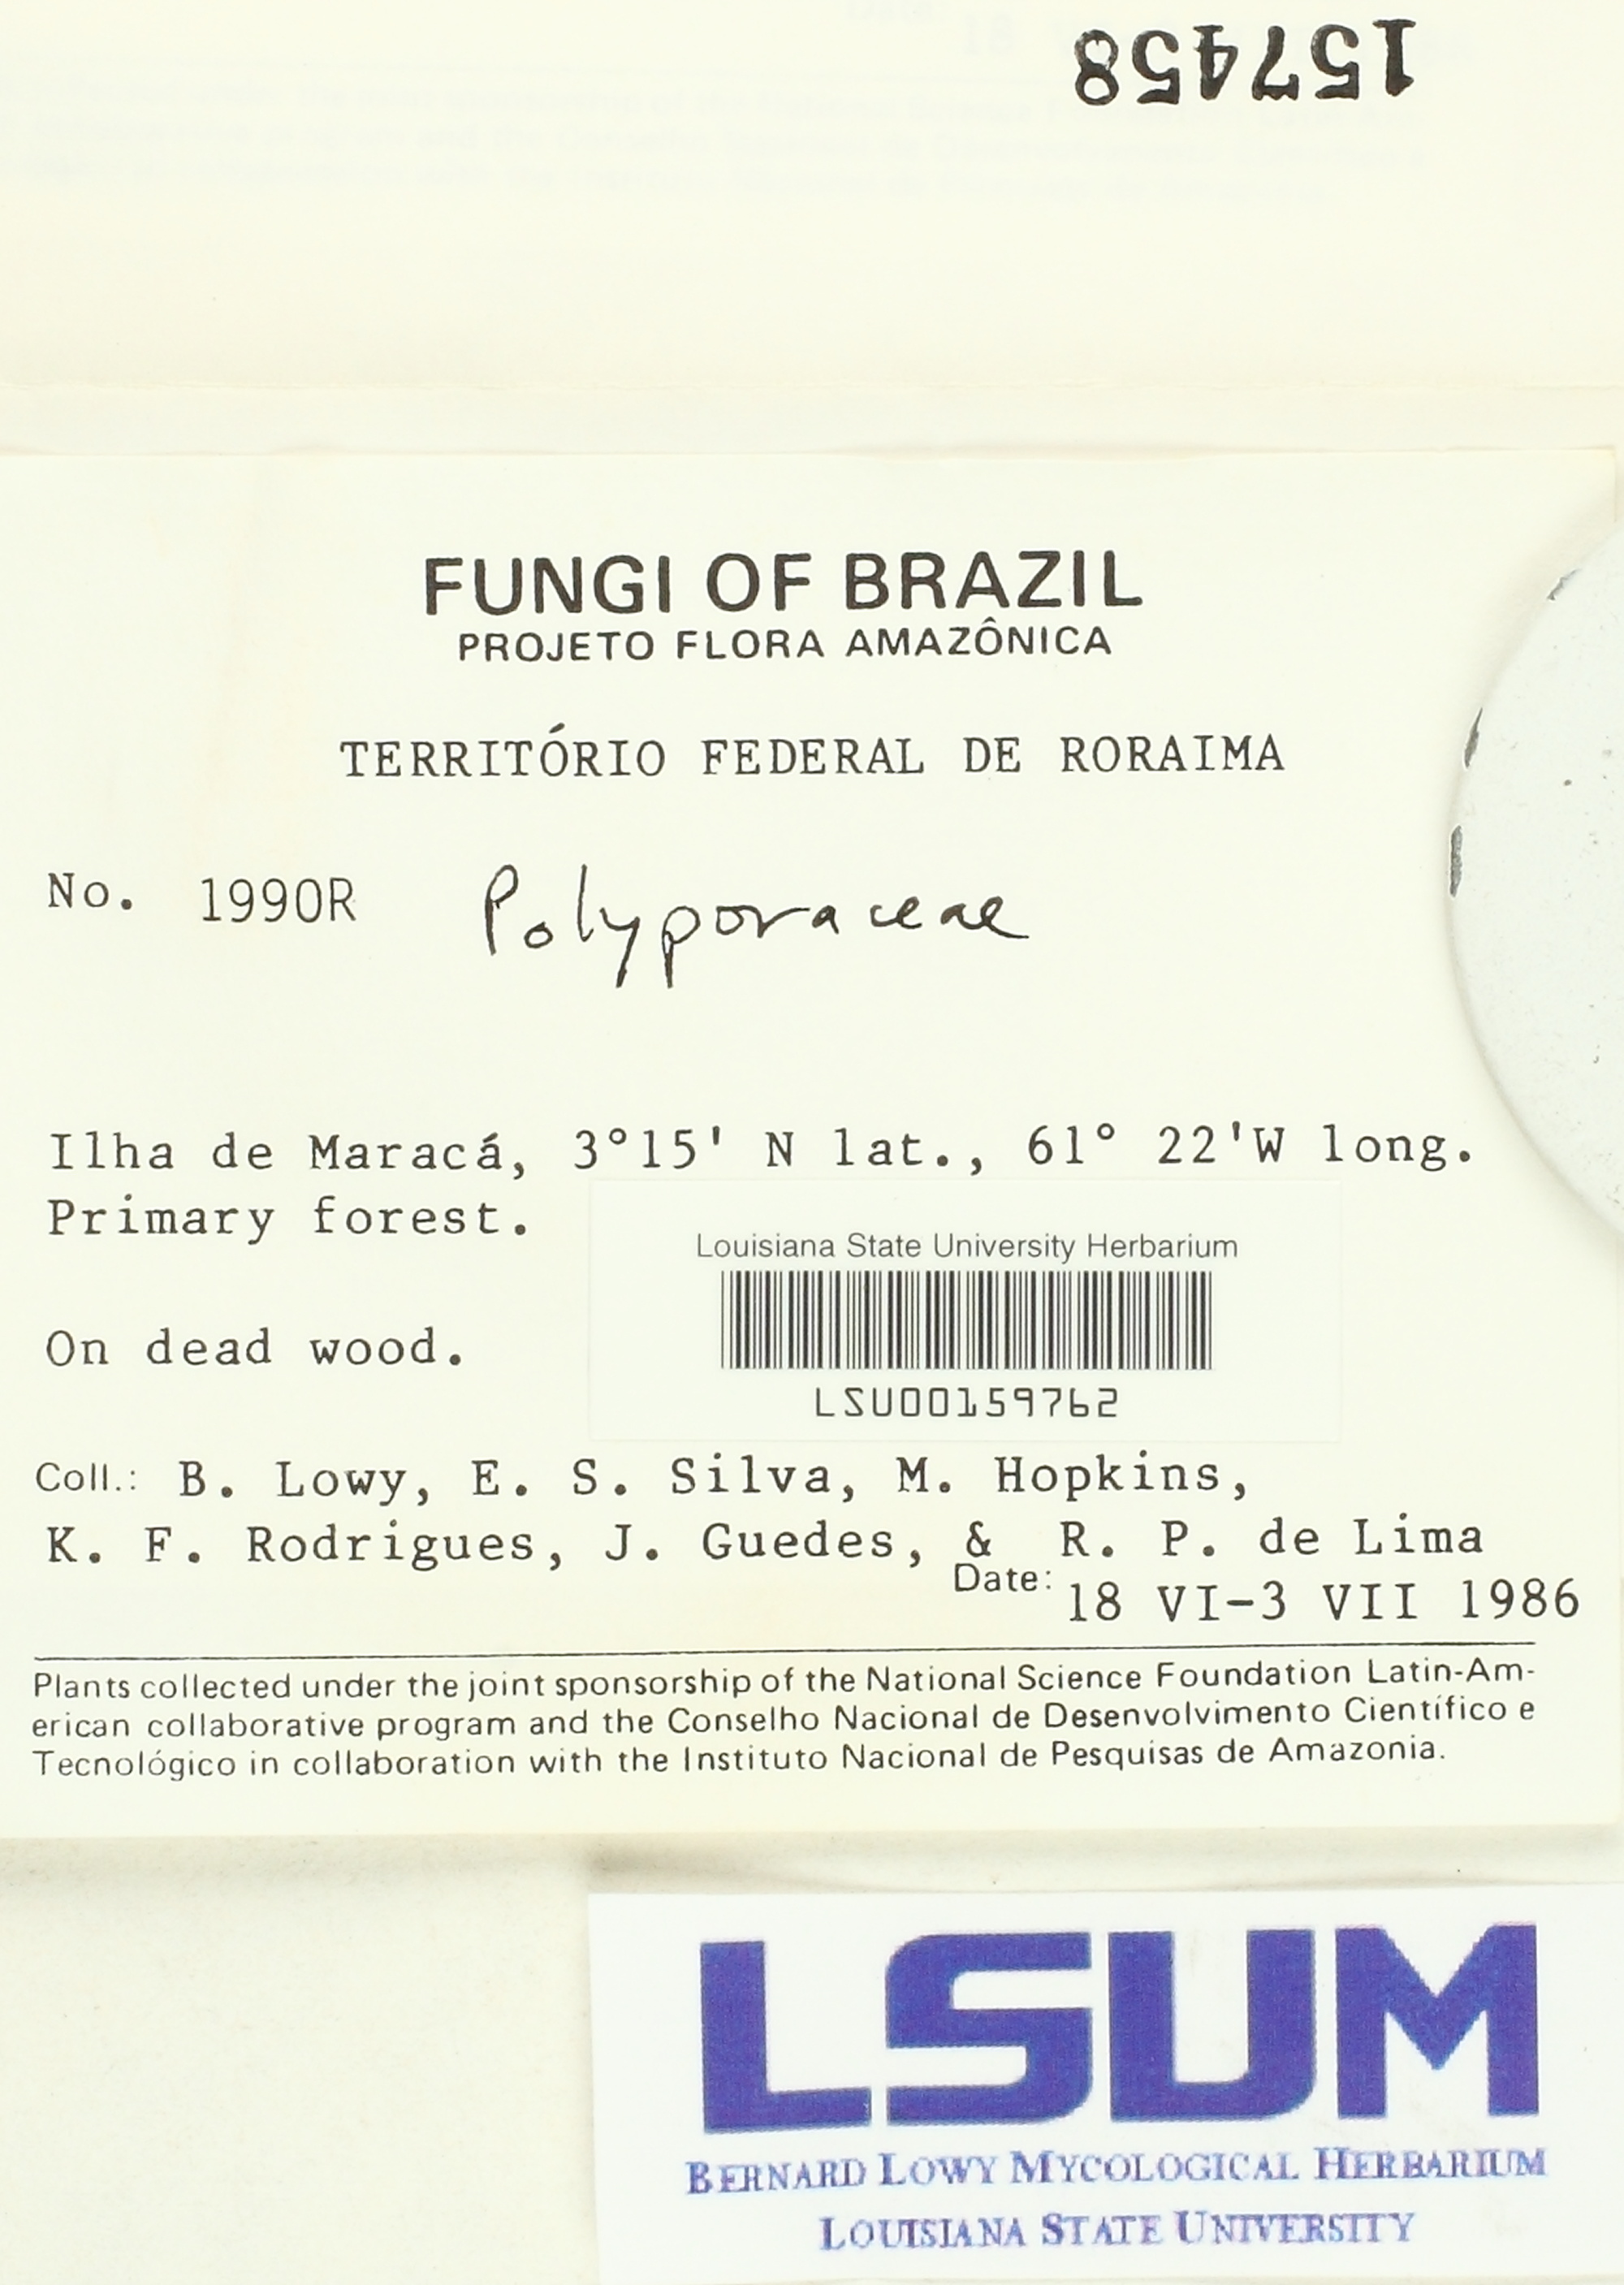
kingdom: Fungi
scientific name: Fungi
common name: Fungi
